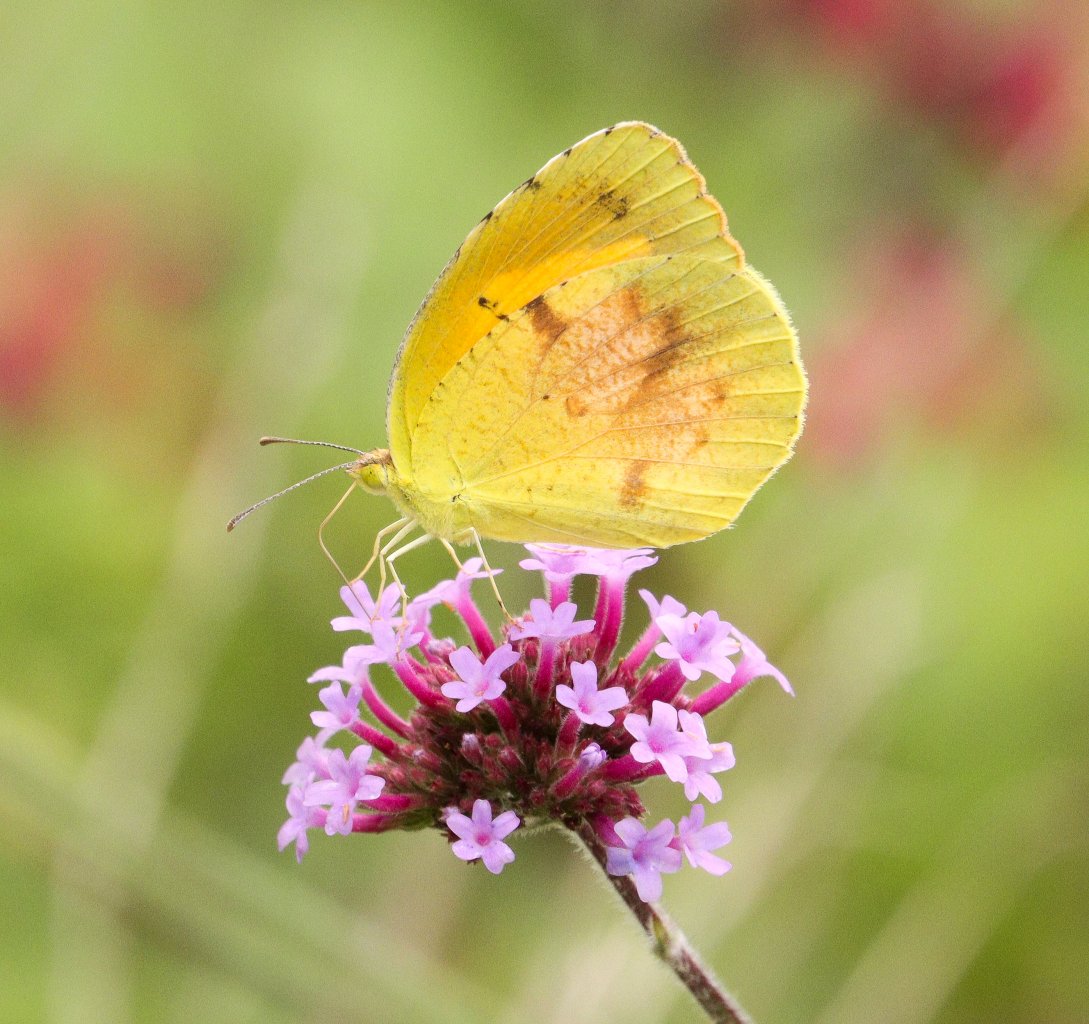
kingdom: Animalia
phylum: Arthropoda
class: Insecta
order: Lepidoptera
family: Pieridae
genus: Abaeis
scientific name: Abaeis nicippe
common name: Sleepy Orange
